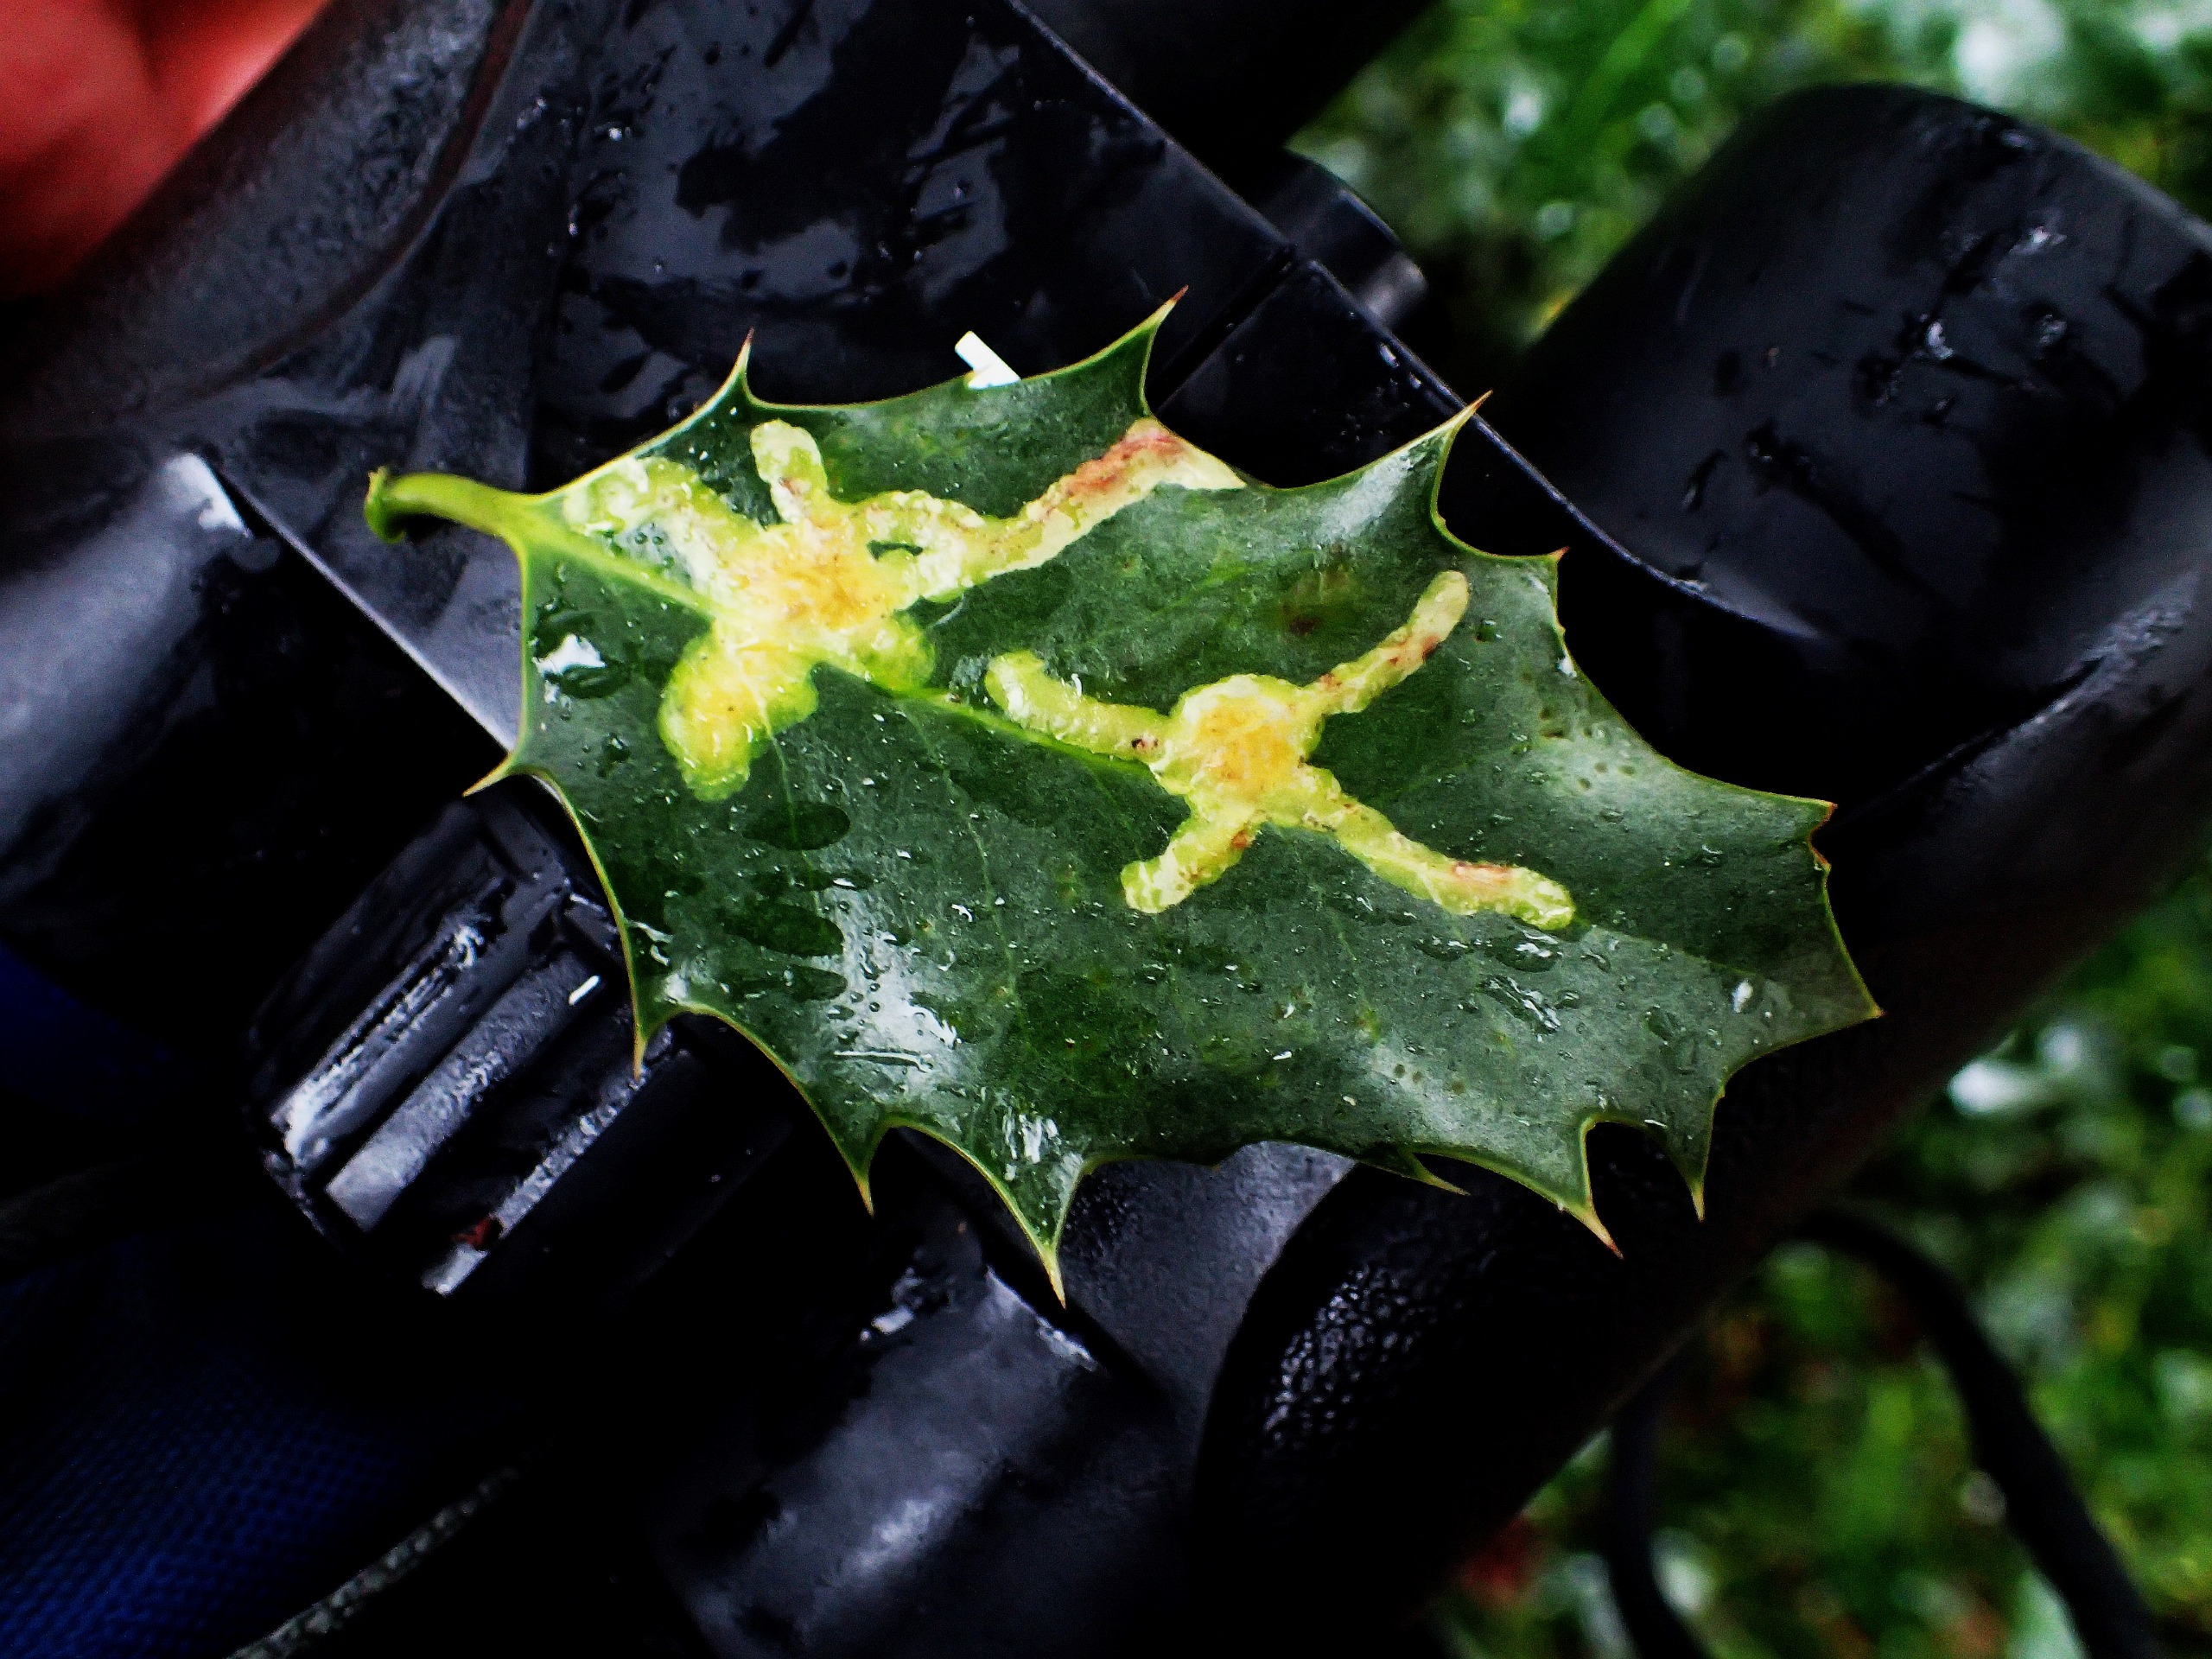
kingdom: Animalia
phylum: Arthropoda
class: Insecta
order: Diptera
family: Agromyzidae
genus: Phytomyza
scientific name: Phytomyza ilicis
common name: Kristtornminérflue
